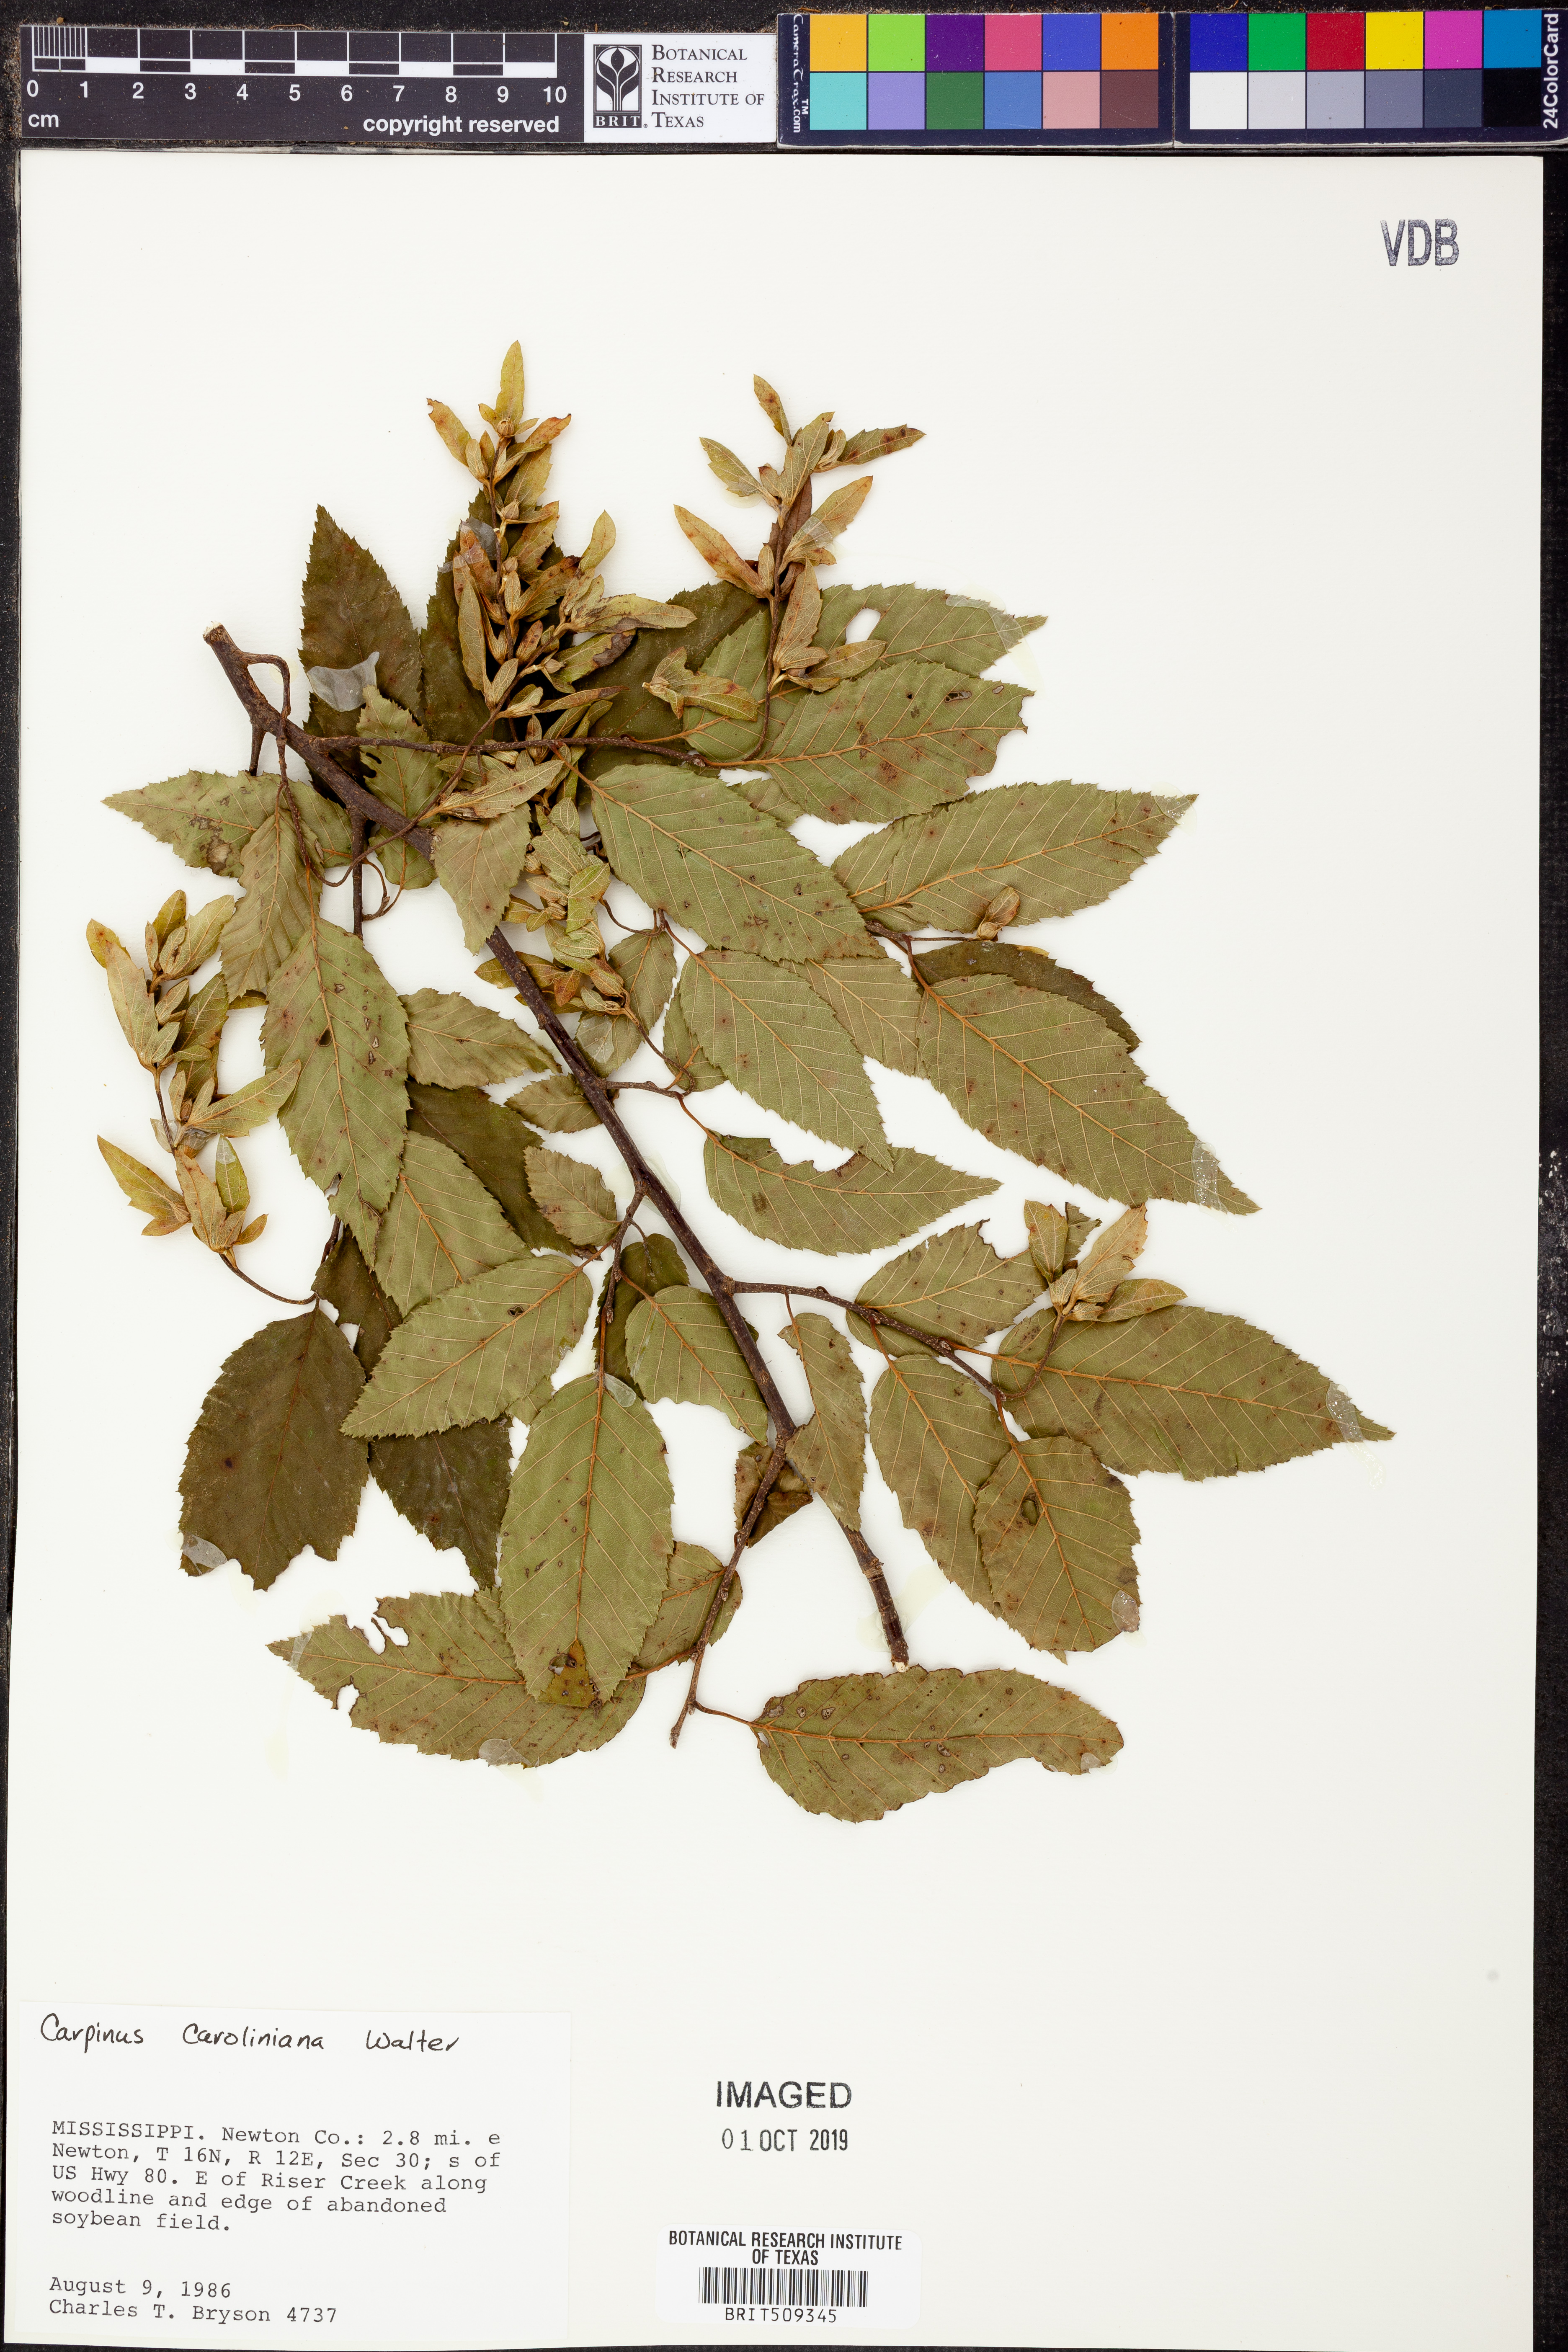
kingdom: Plantae
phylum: Tracheophyta
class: Magnoliopsida
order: Fagales
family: Betulaceae
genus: Carpinus
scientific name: Carpinus caroliniana
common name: American hornbeam
